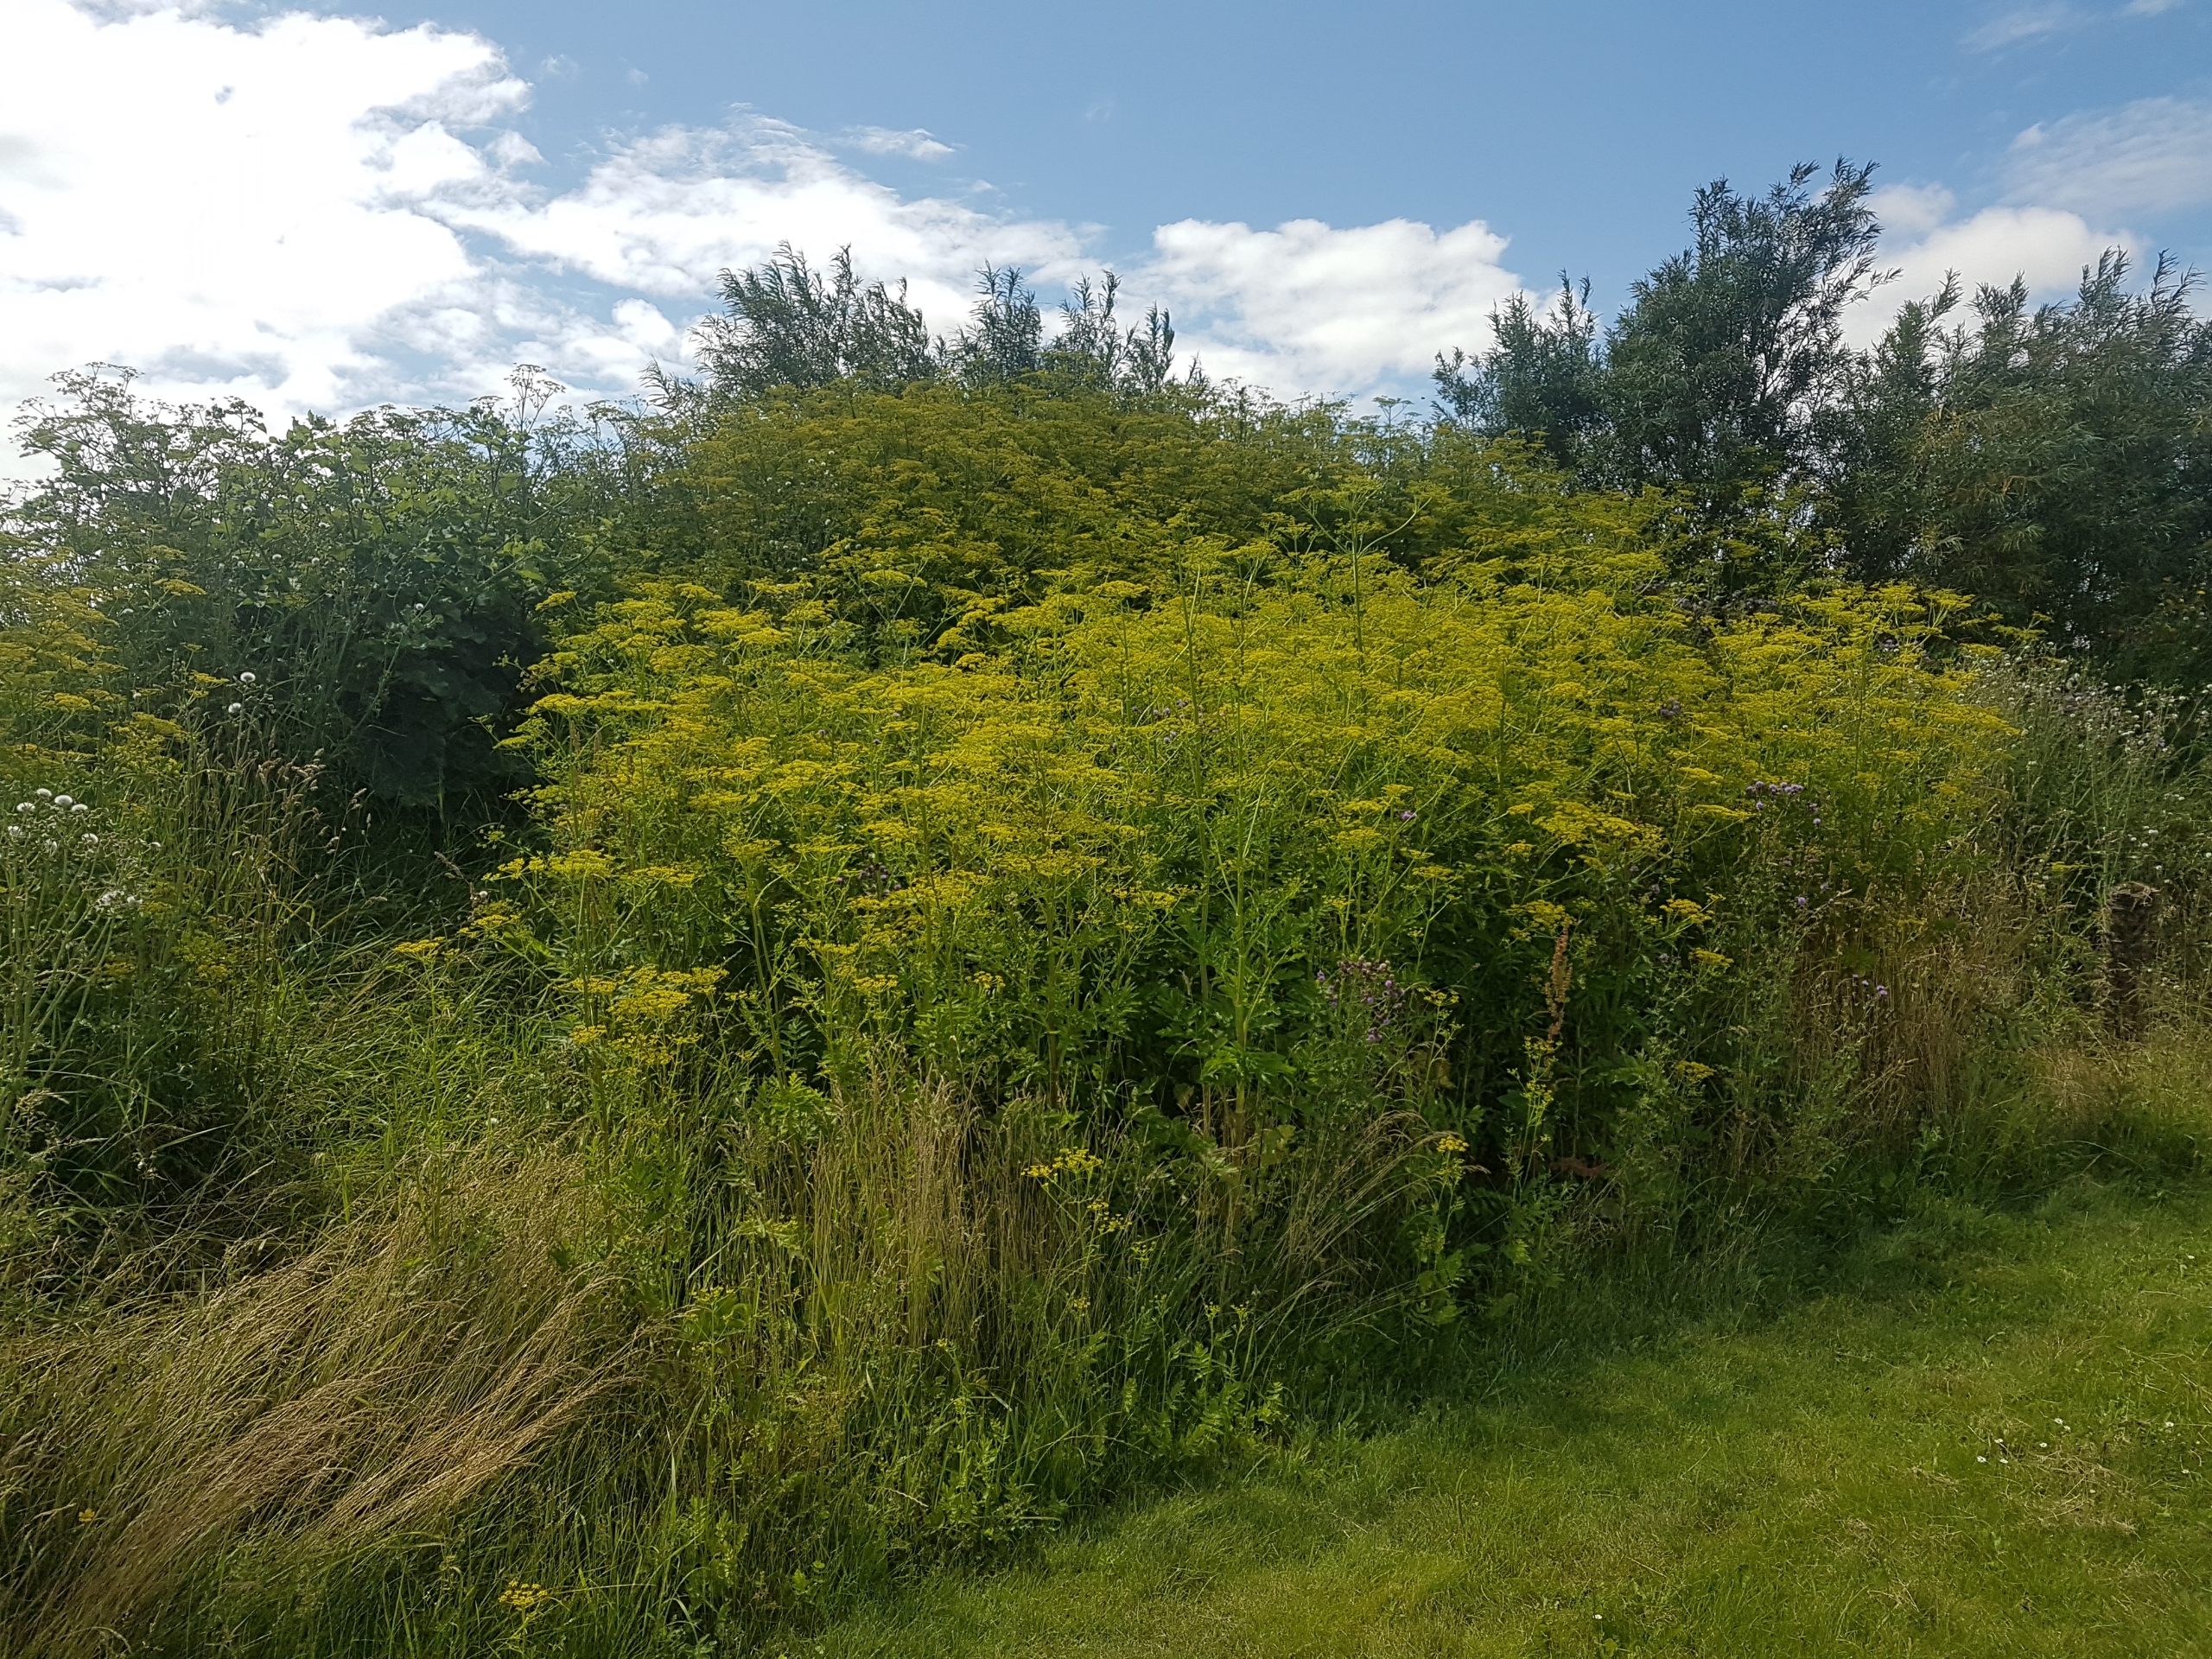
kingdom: Plantae
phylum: Tracheophyta
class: Magnoliopsida
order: Apiales
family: Apiaceae
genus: Pastinaca
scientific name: Pastinaca sativa
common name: Pastinak
